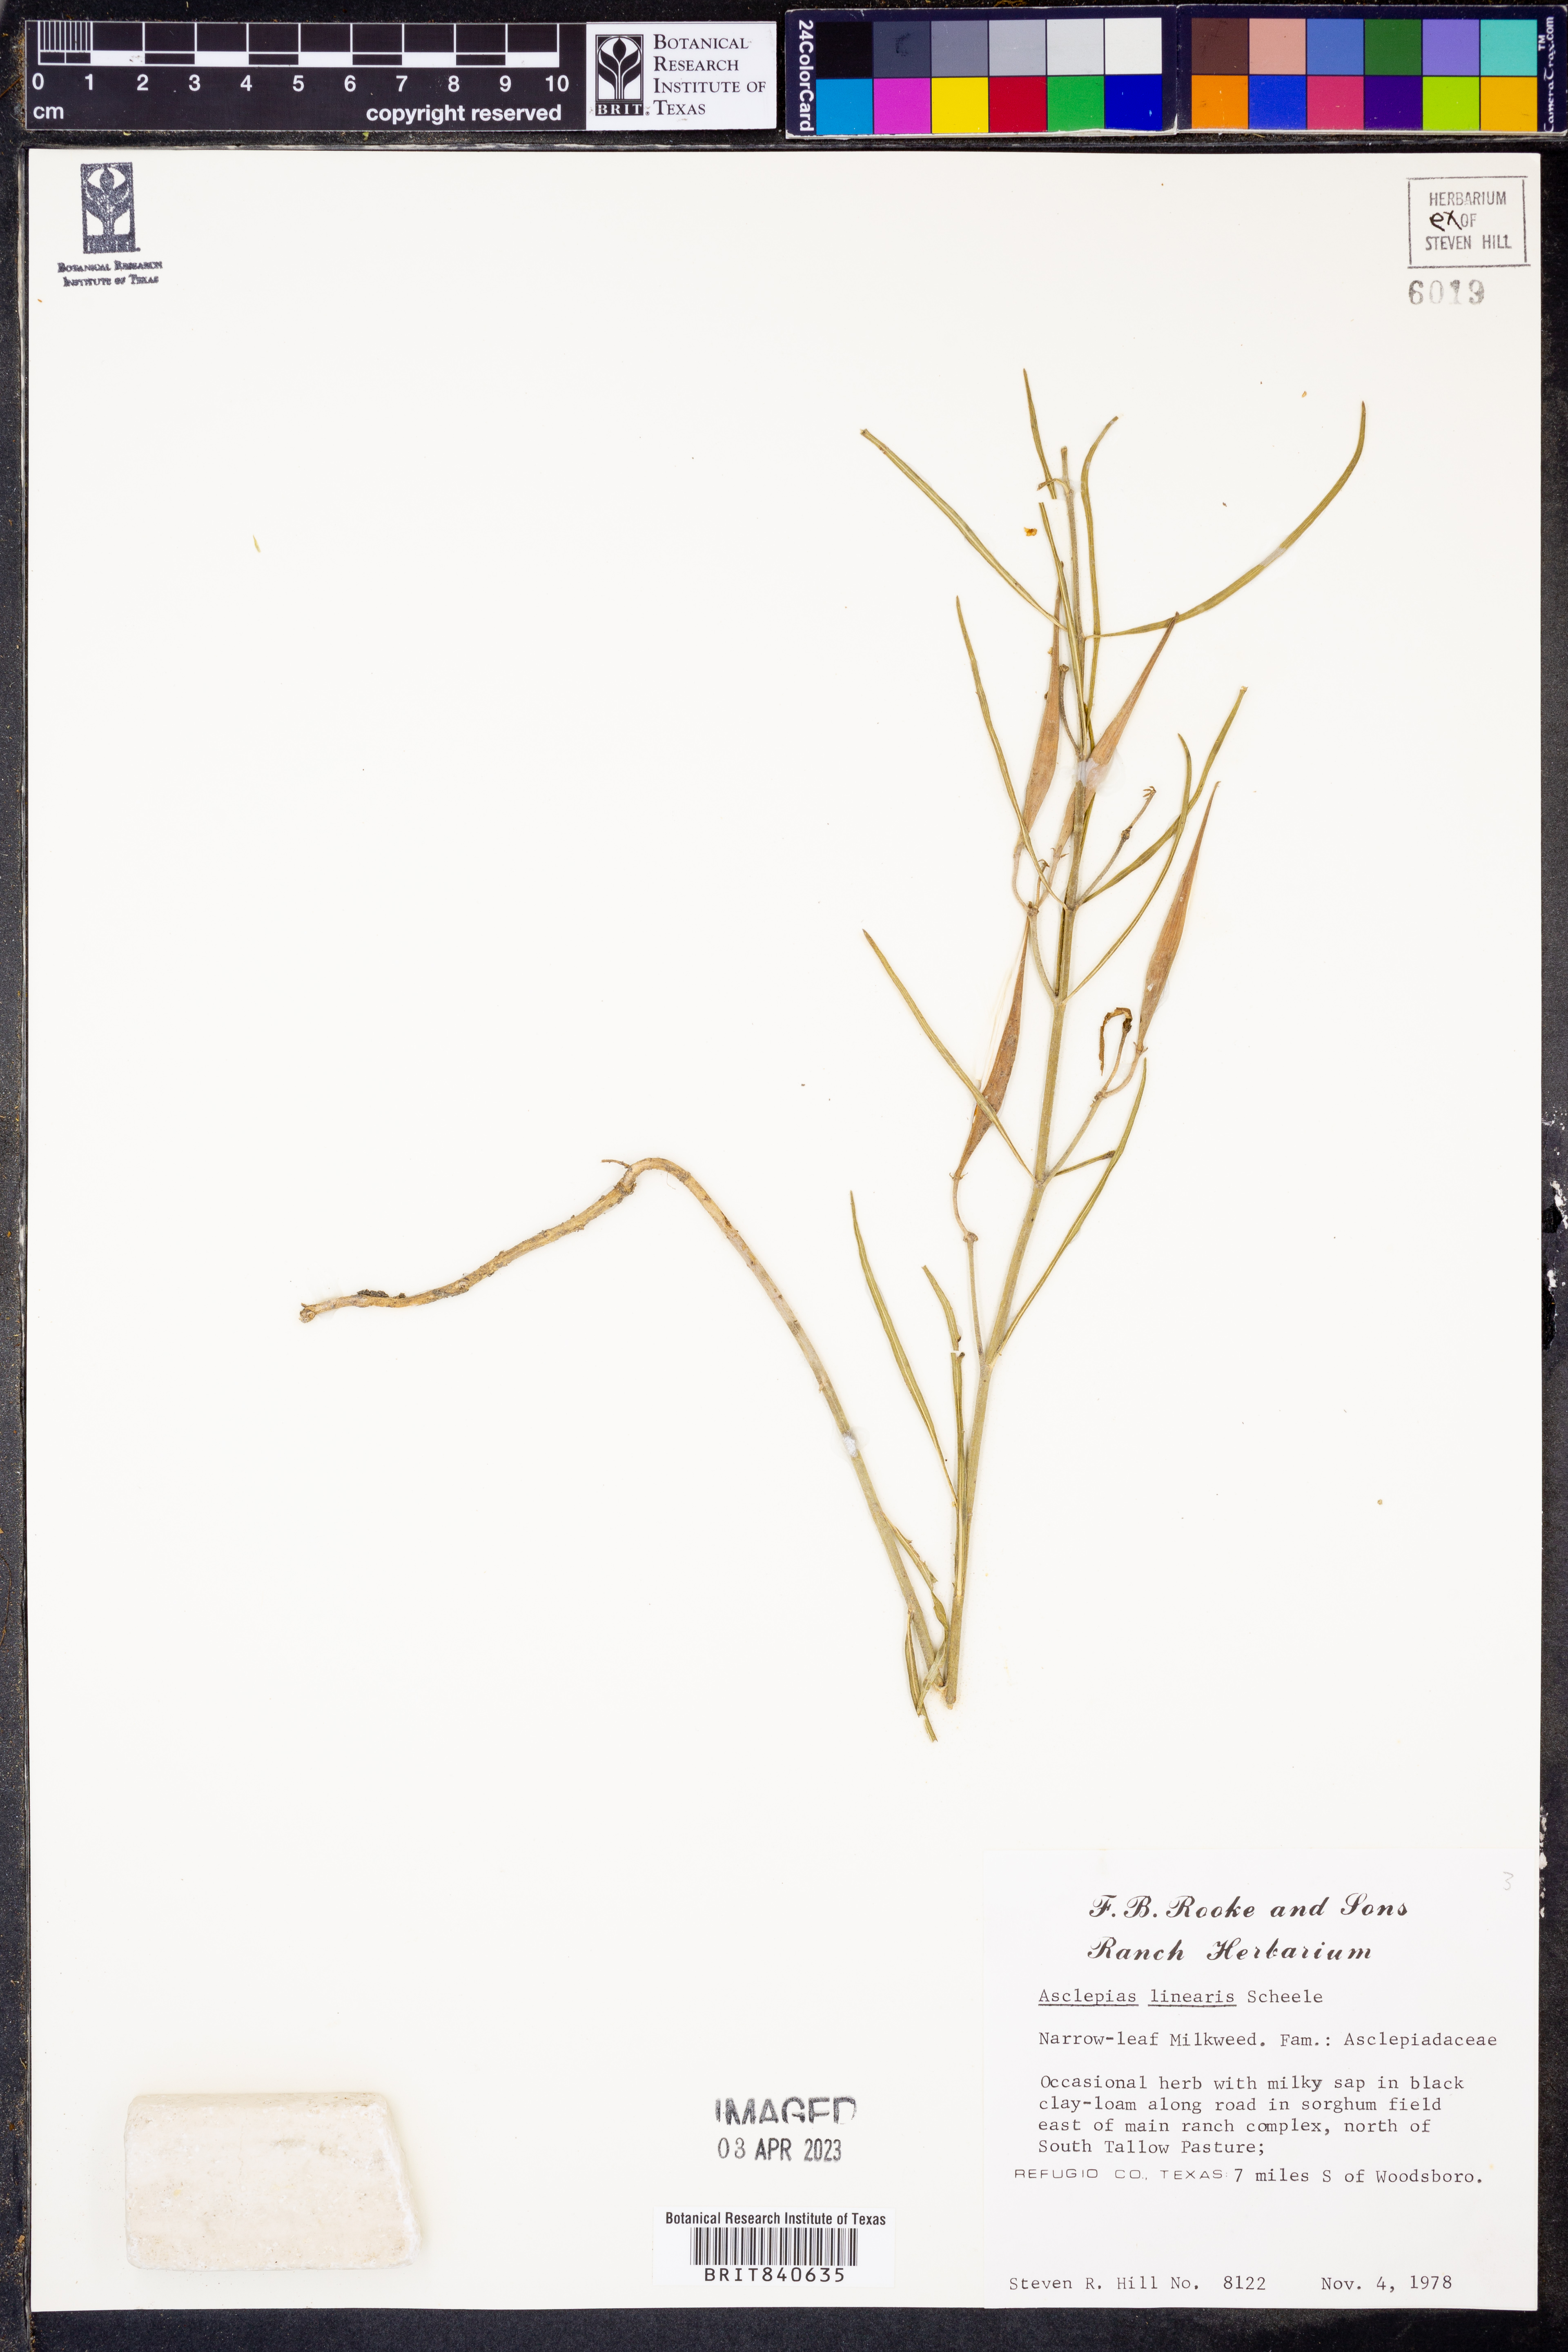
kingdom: Plantae
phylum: Tracheophyta
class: Magnoliopsida
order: Gentianales
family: Apocynaceae
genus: Asclepias
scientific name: Asclepias linearis
